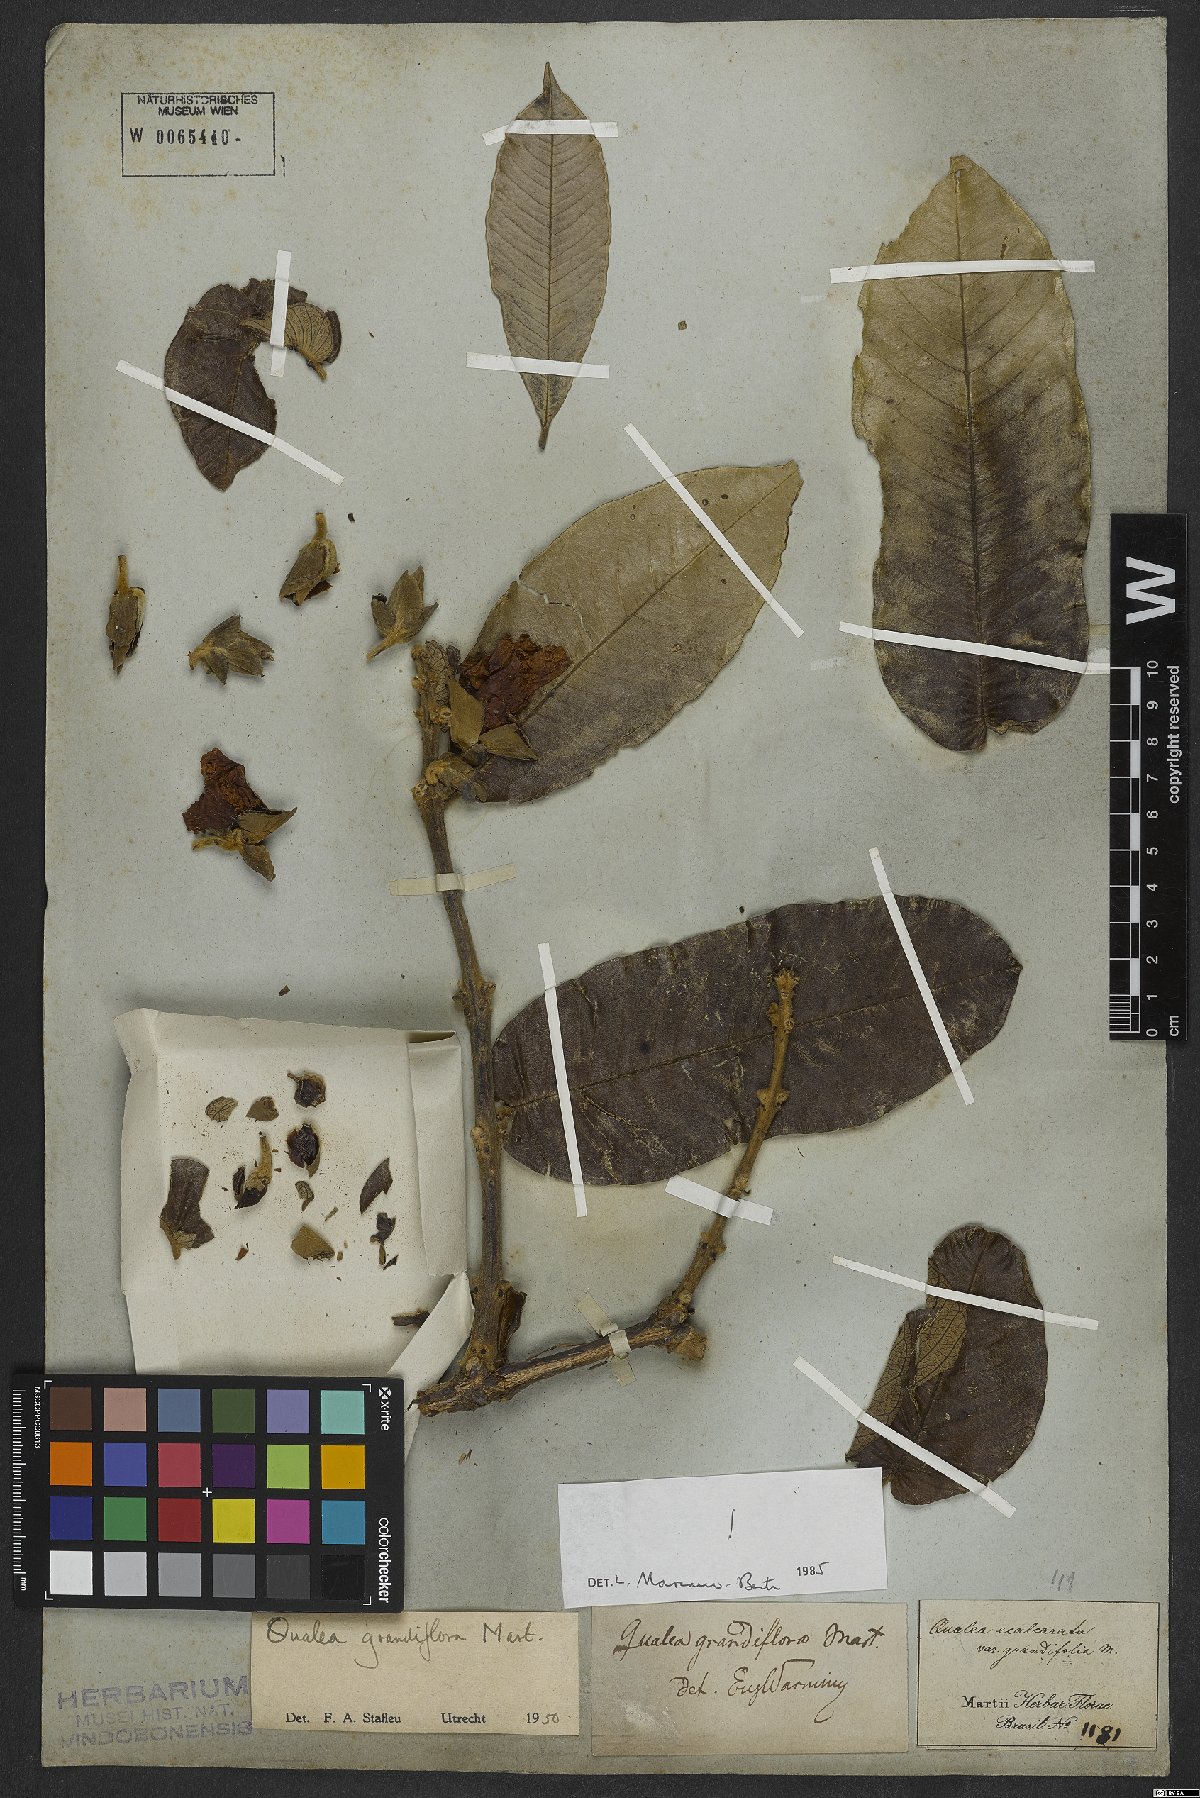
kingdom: Plantae
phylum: Tracheophyta
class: Magnoliopsida
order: Myrtales
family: Vochysiaceae
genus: Qualea
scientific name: Qualea grandiflora
